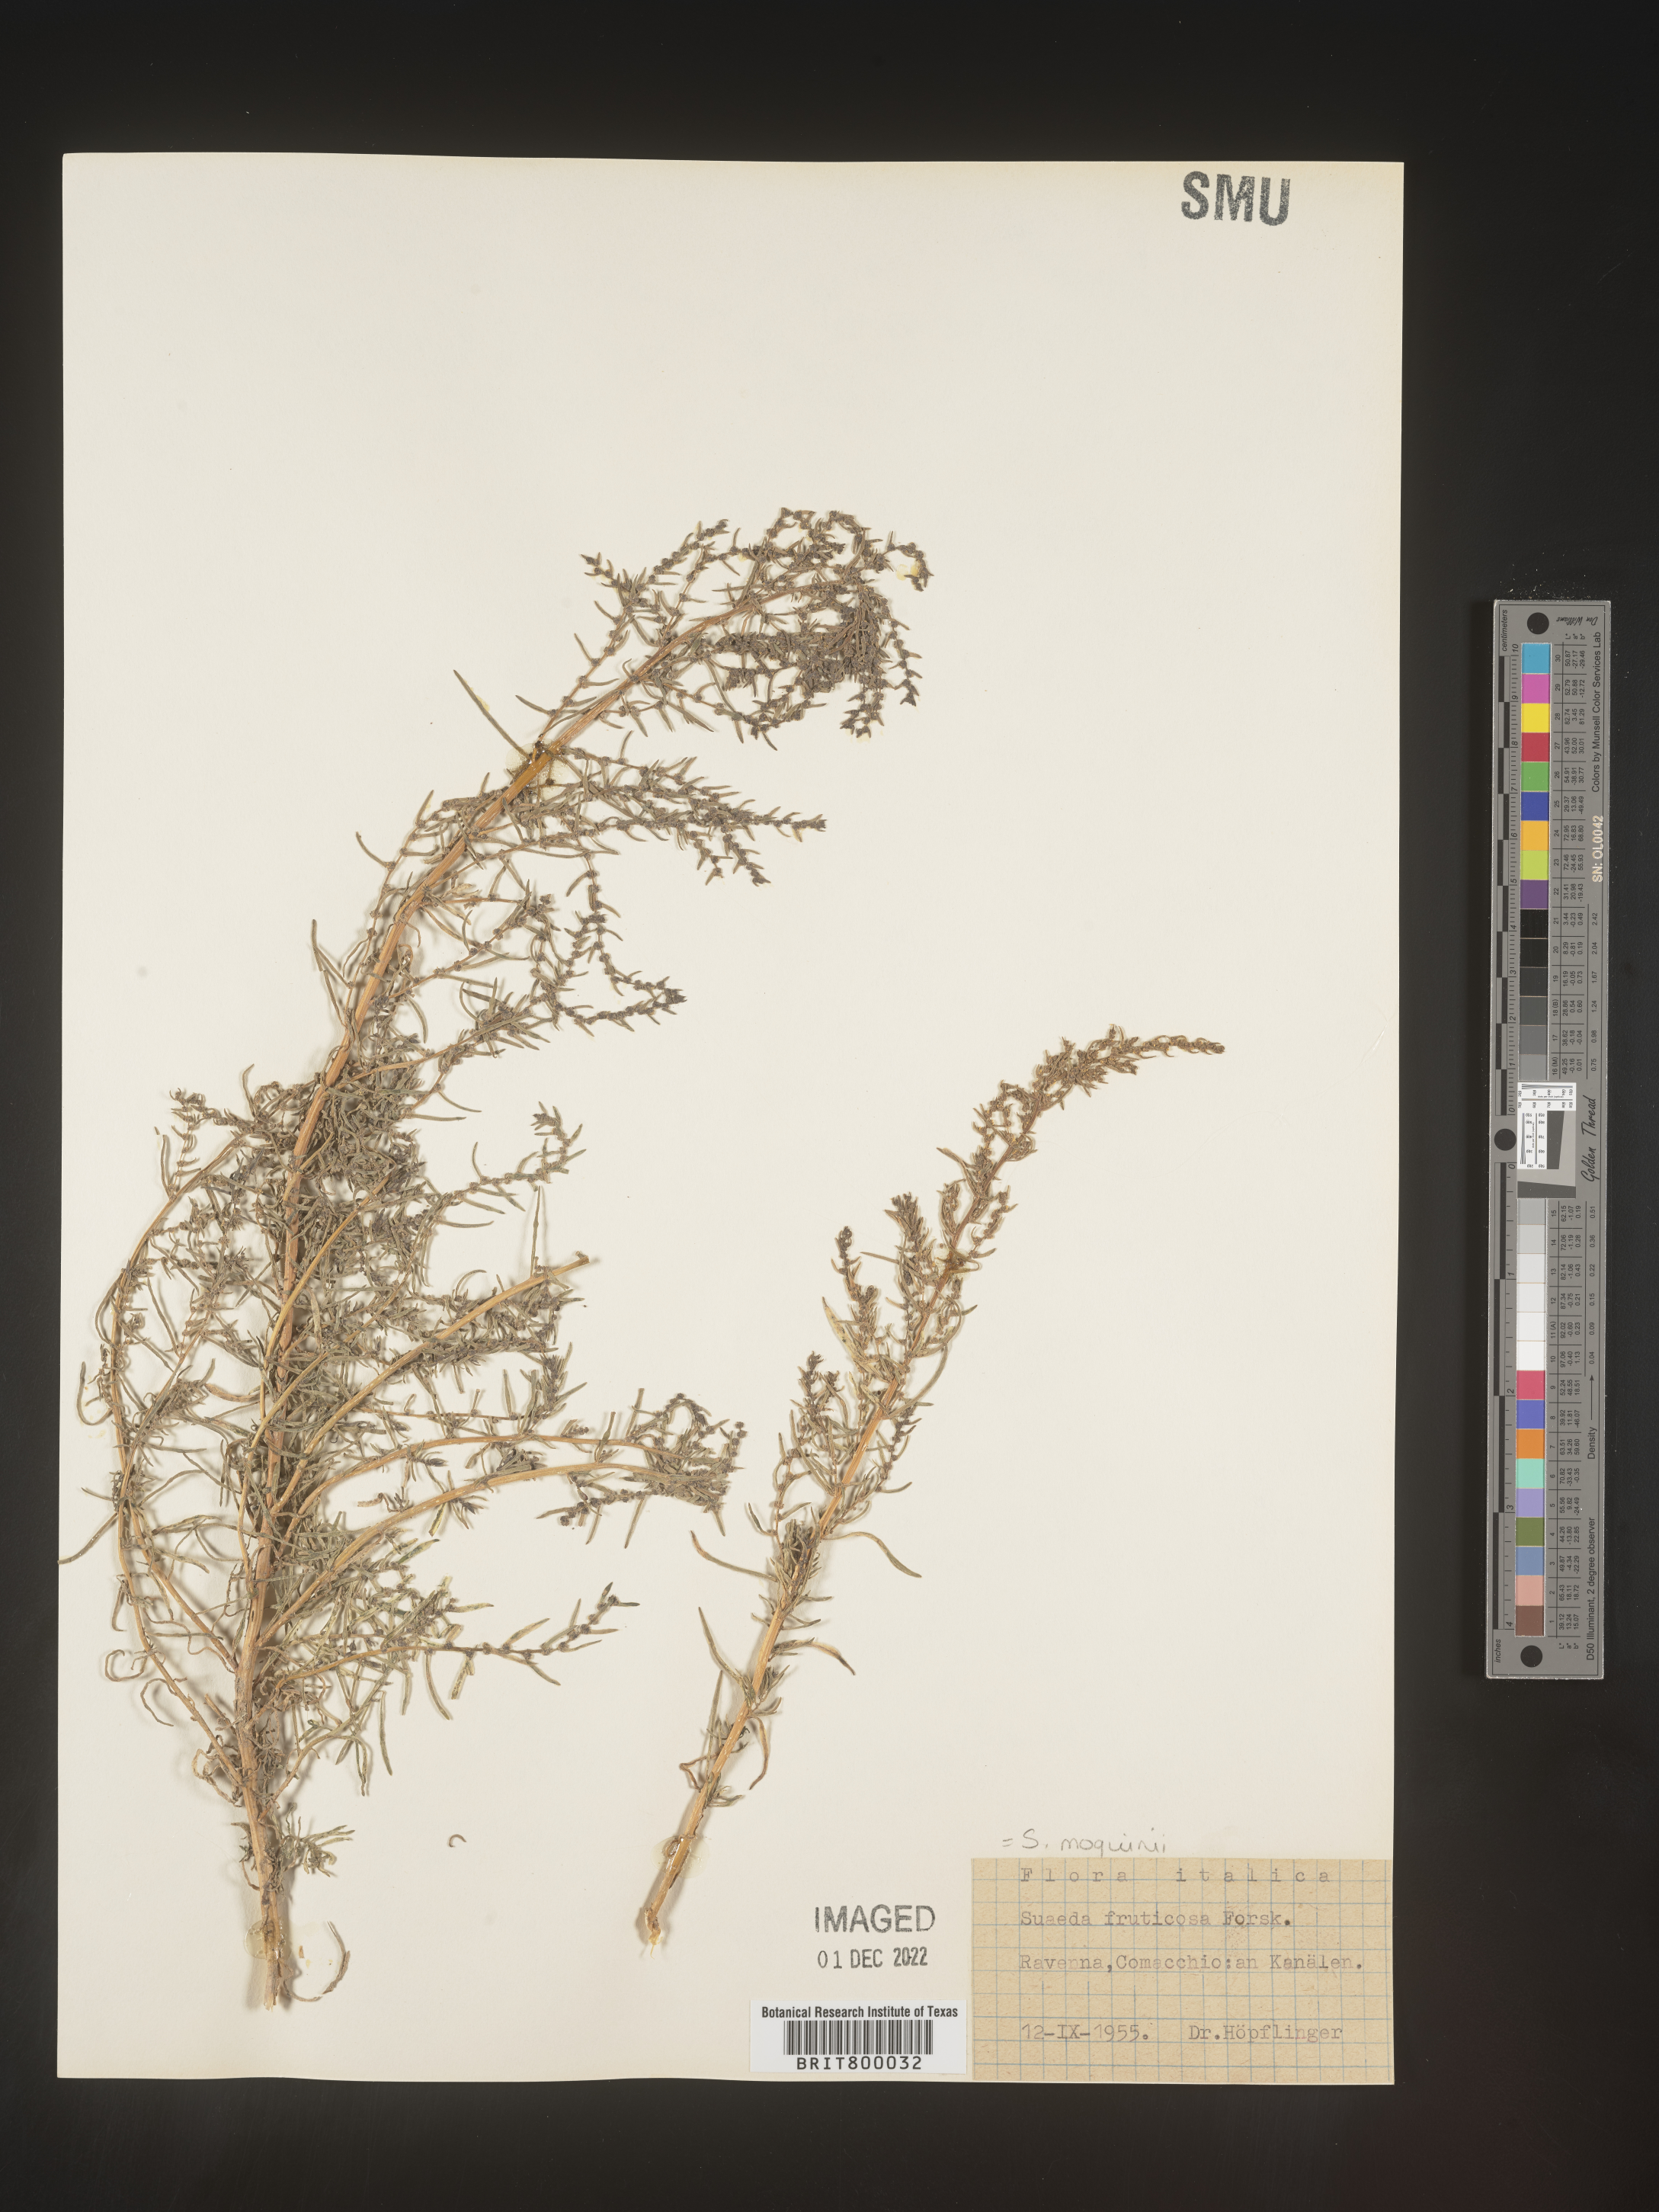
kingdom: Plantae
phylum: Tracheophyta
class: Magnoliopsida
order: Caryophyllales
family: Amaranthaceae
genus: Suaeda
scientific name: Suaeda
